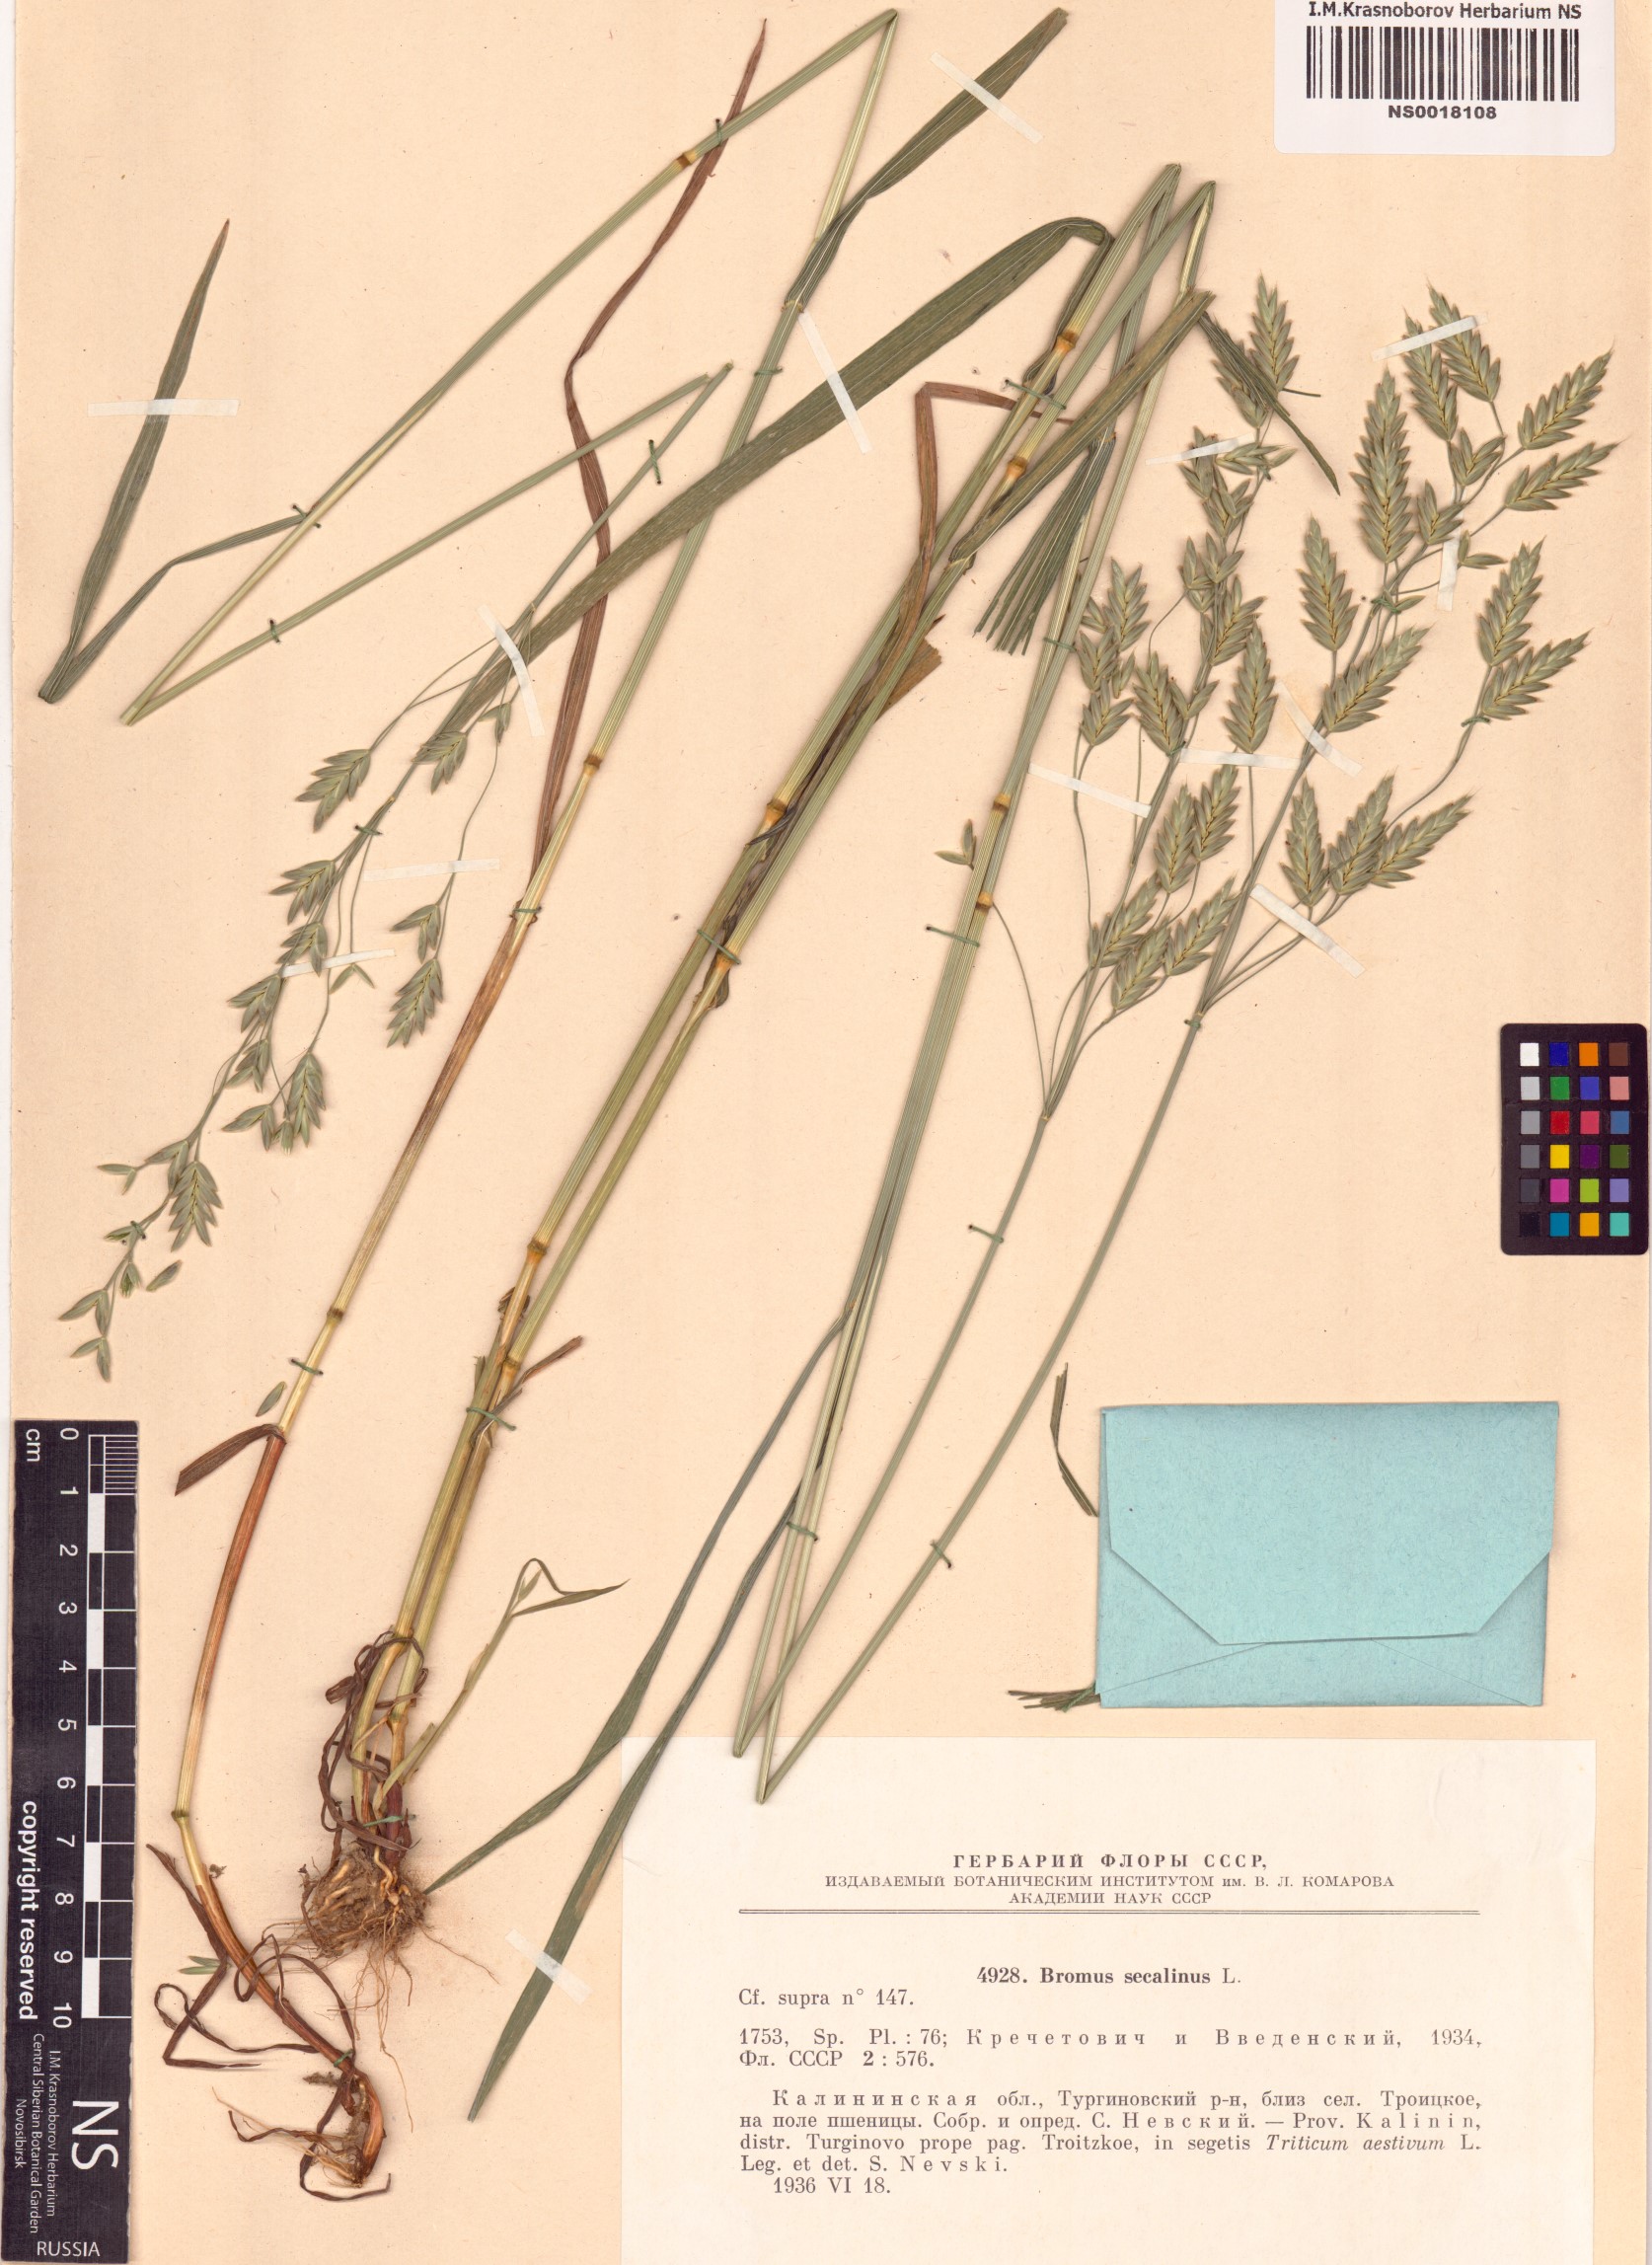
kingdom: Plantae
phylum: Tracheophyta
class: Liliopsida
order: Poales
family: Poaceae
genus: Bromus
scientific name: Bromus secalinus
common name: Rye brome
